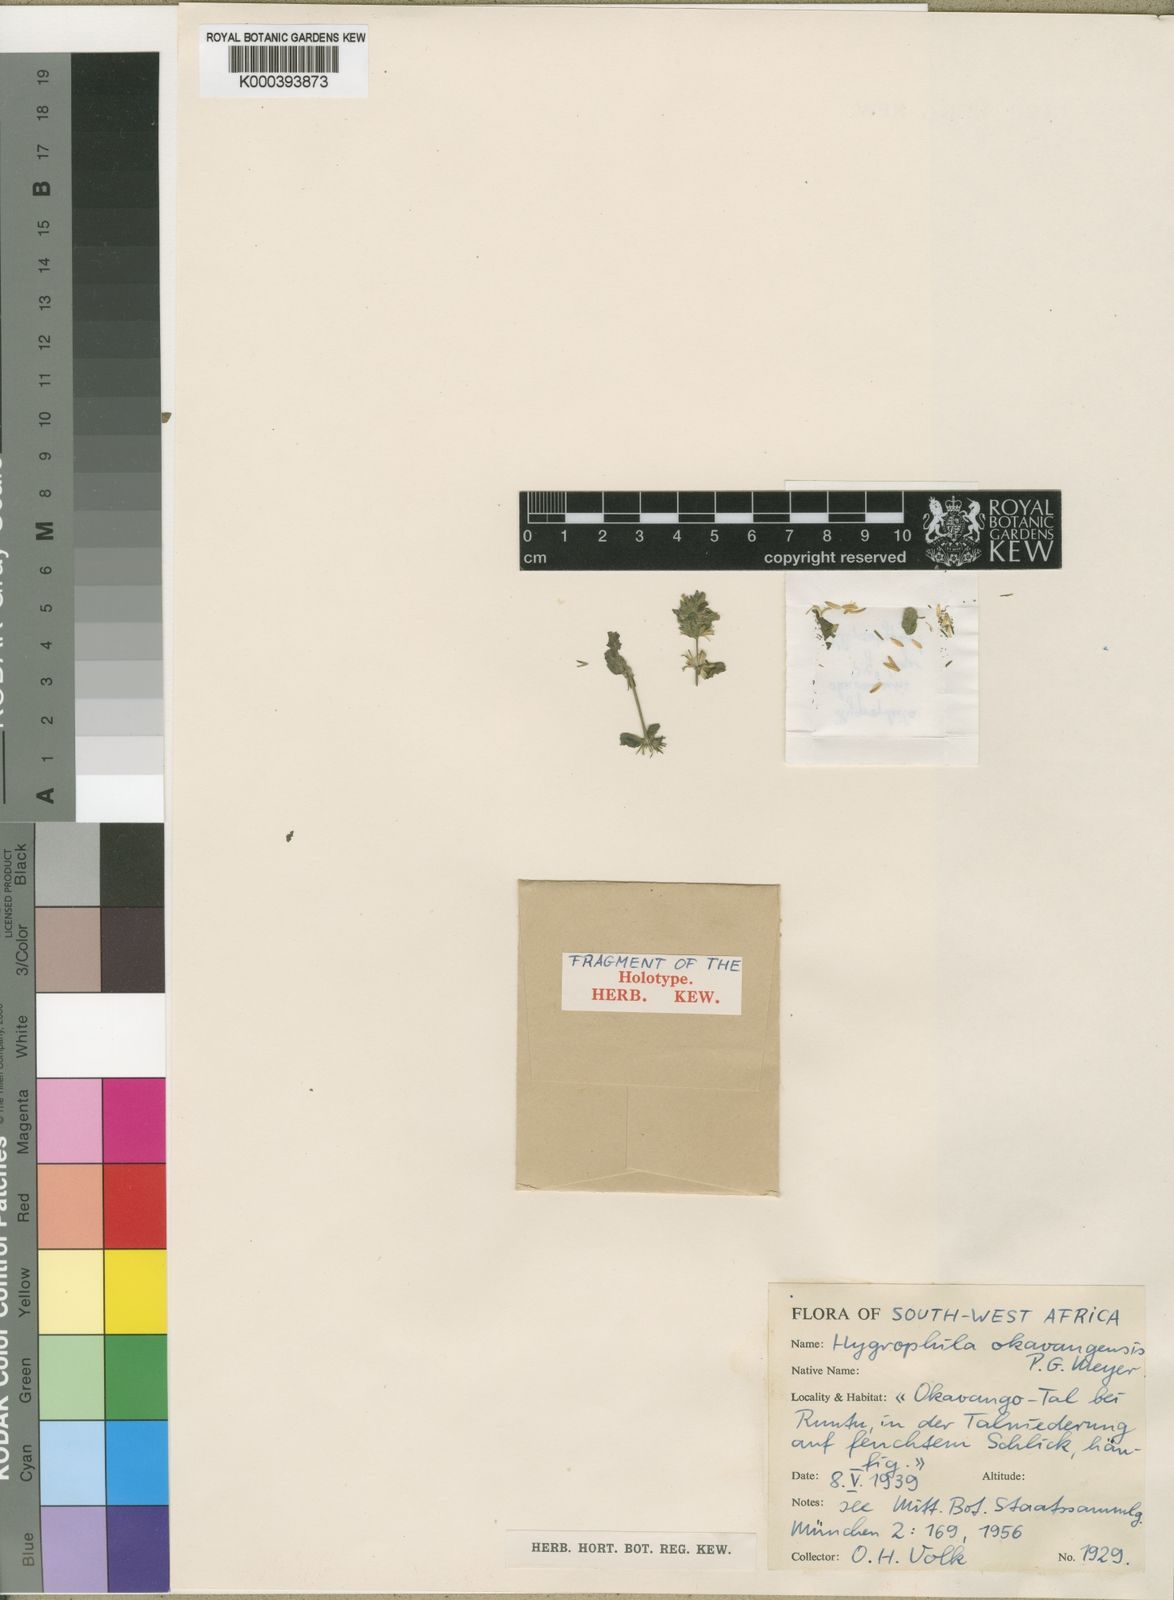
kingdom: Plantae
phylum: Tracheophyta
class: Magnoliopsida
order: Lamiales
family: Acanthaceae
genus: Hygrophila
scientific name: Hygrophila okavangensis
